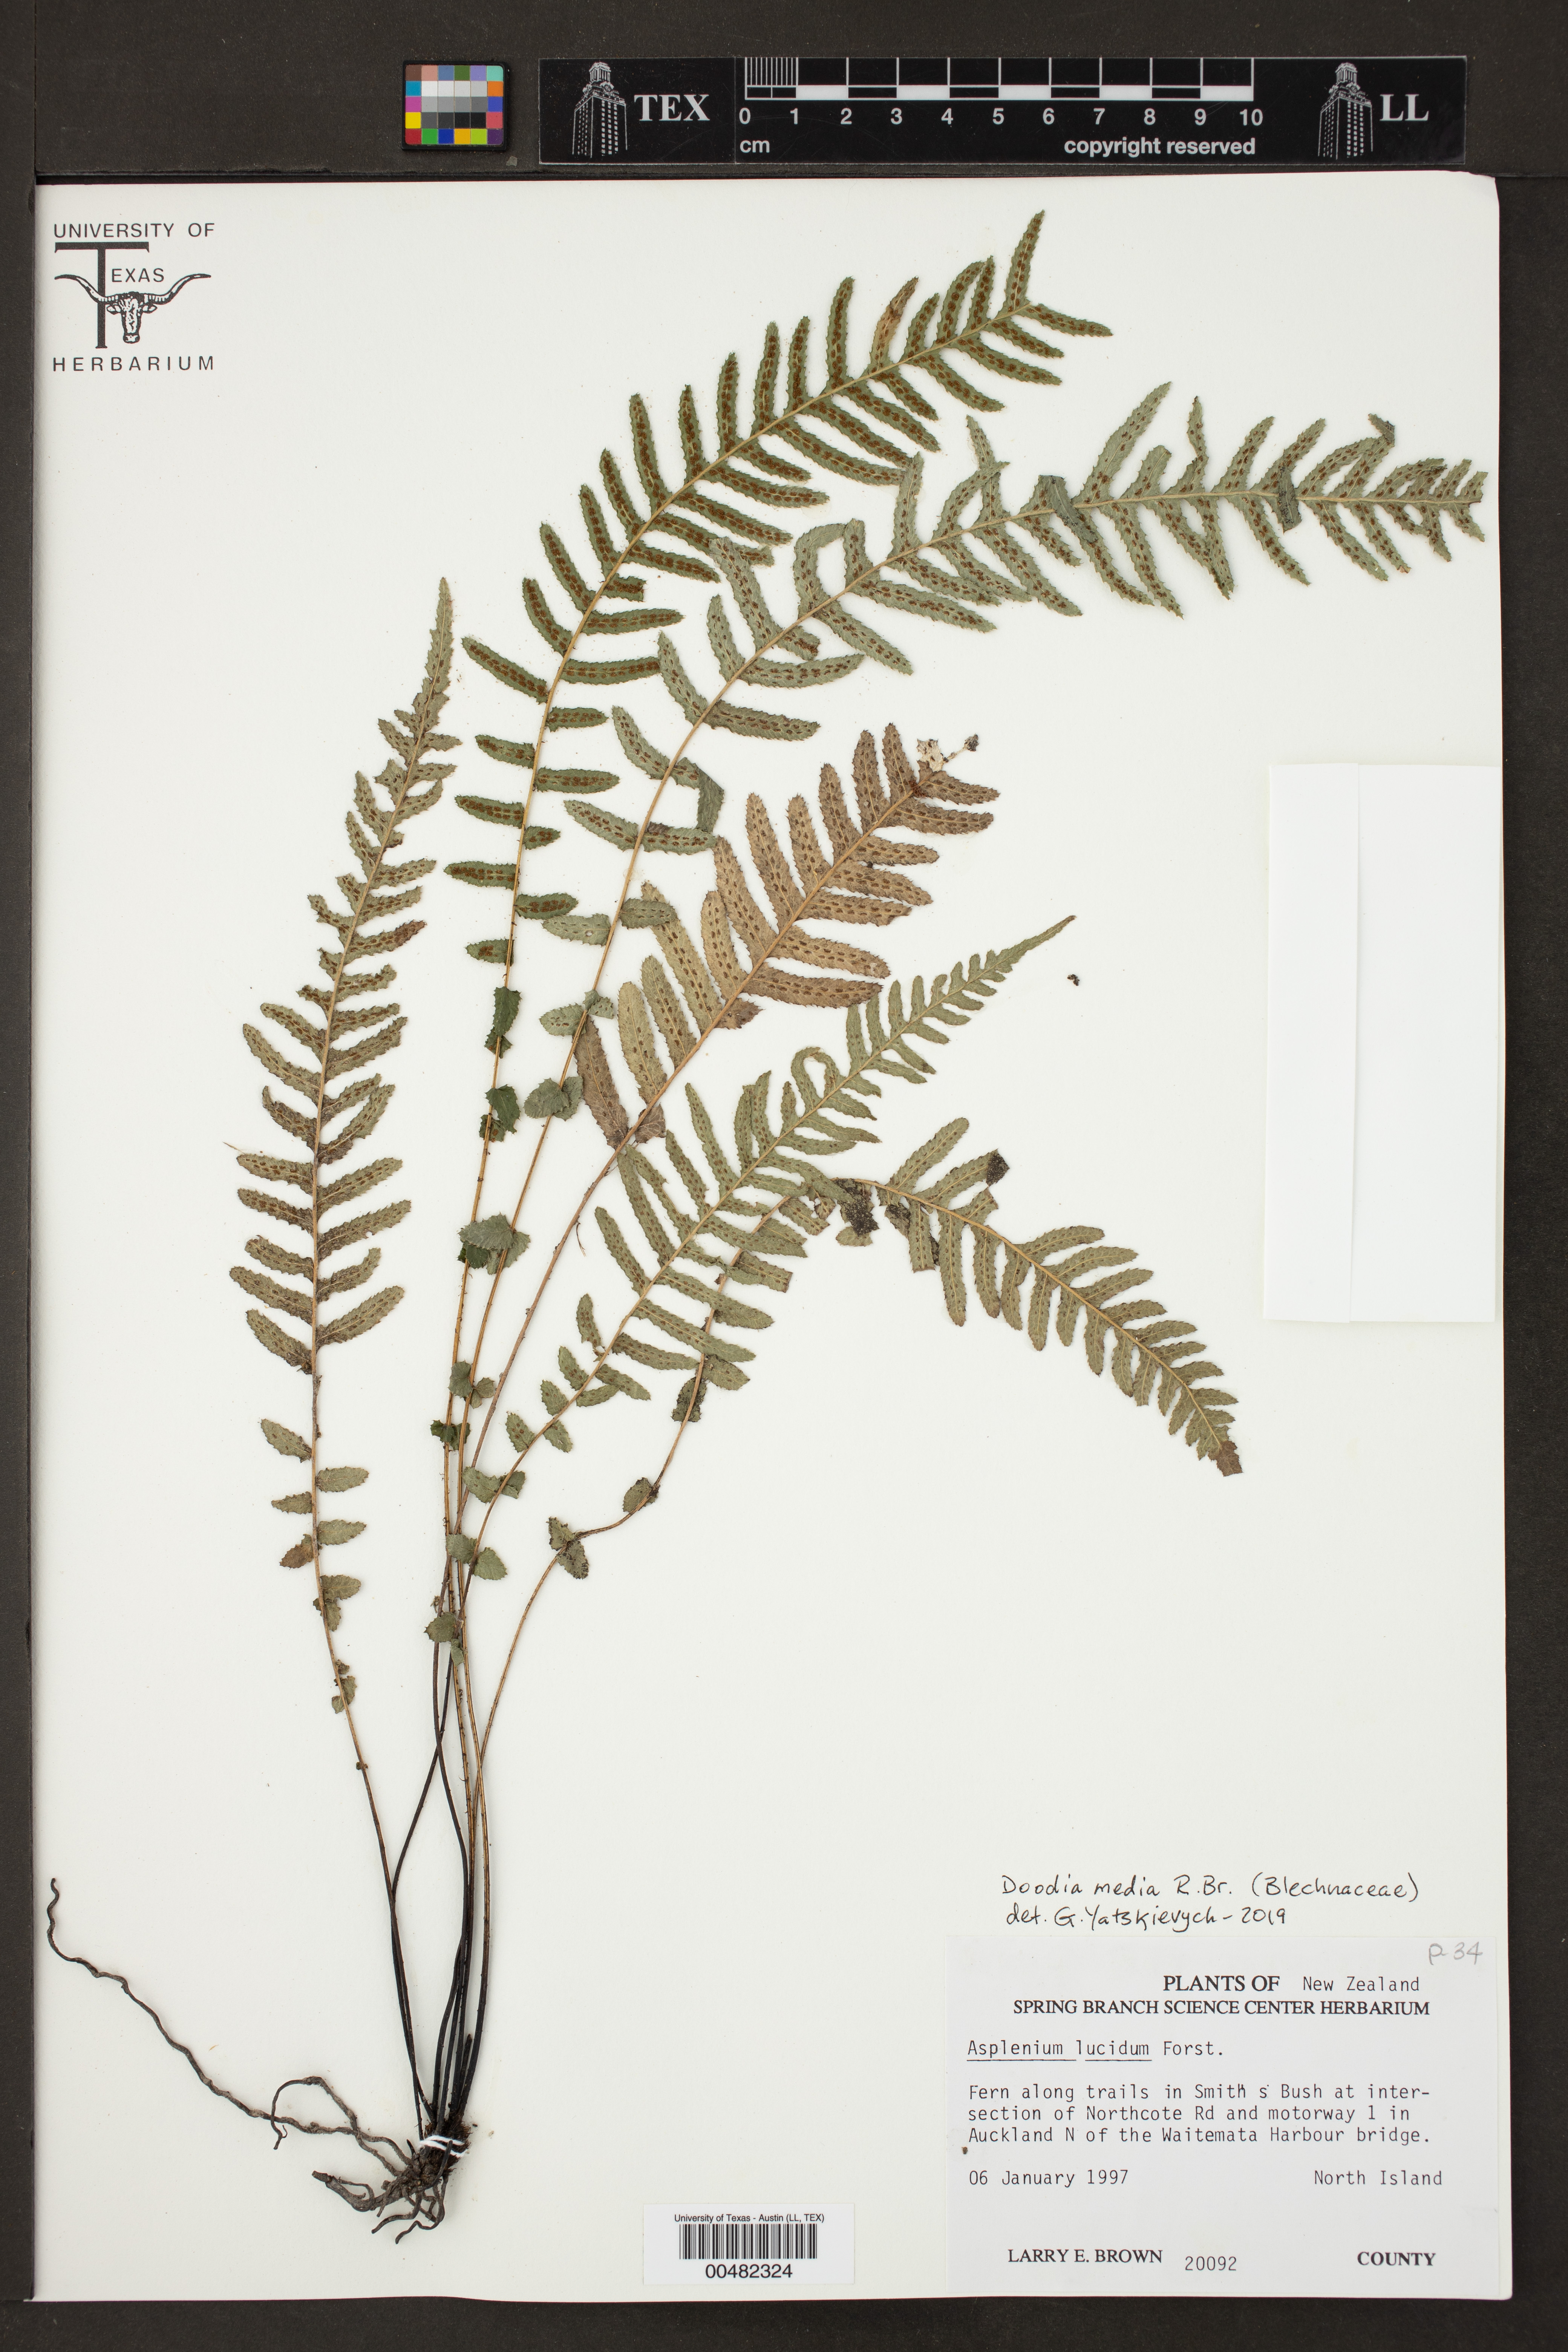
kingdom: Plantae
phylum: Tracheophyta
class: Polypodiopsida
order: Polypodiales
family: Blechnaceae
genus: Doodia
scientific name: Doodia media
